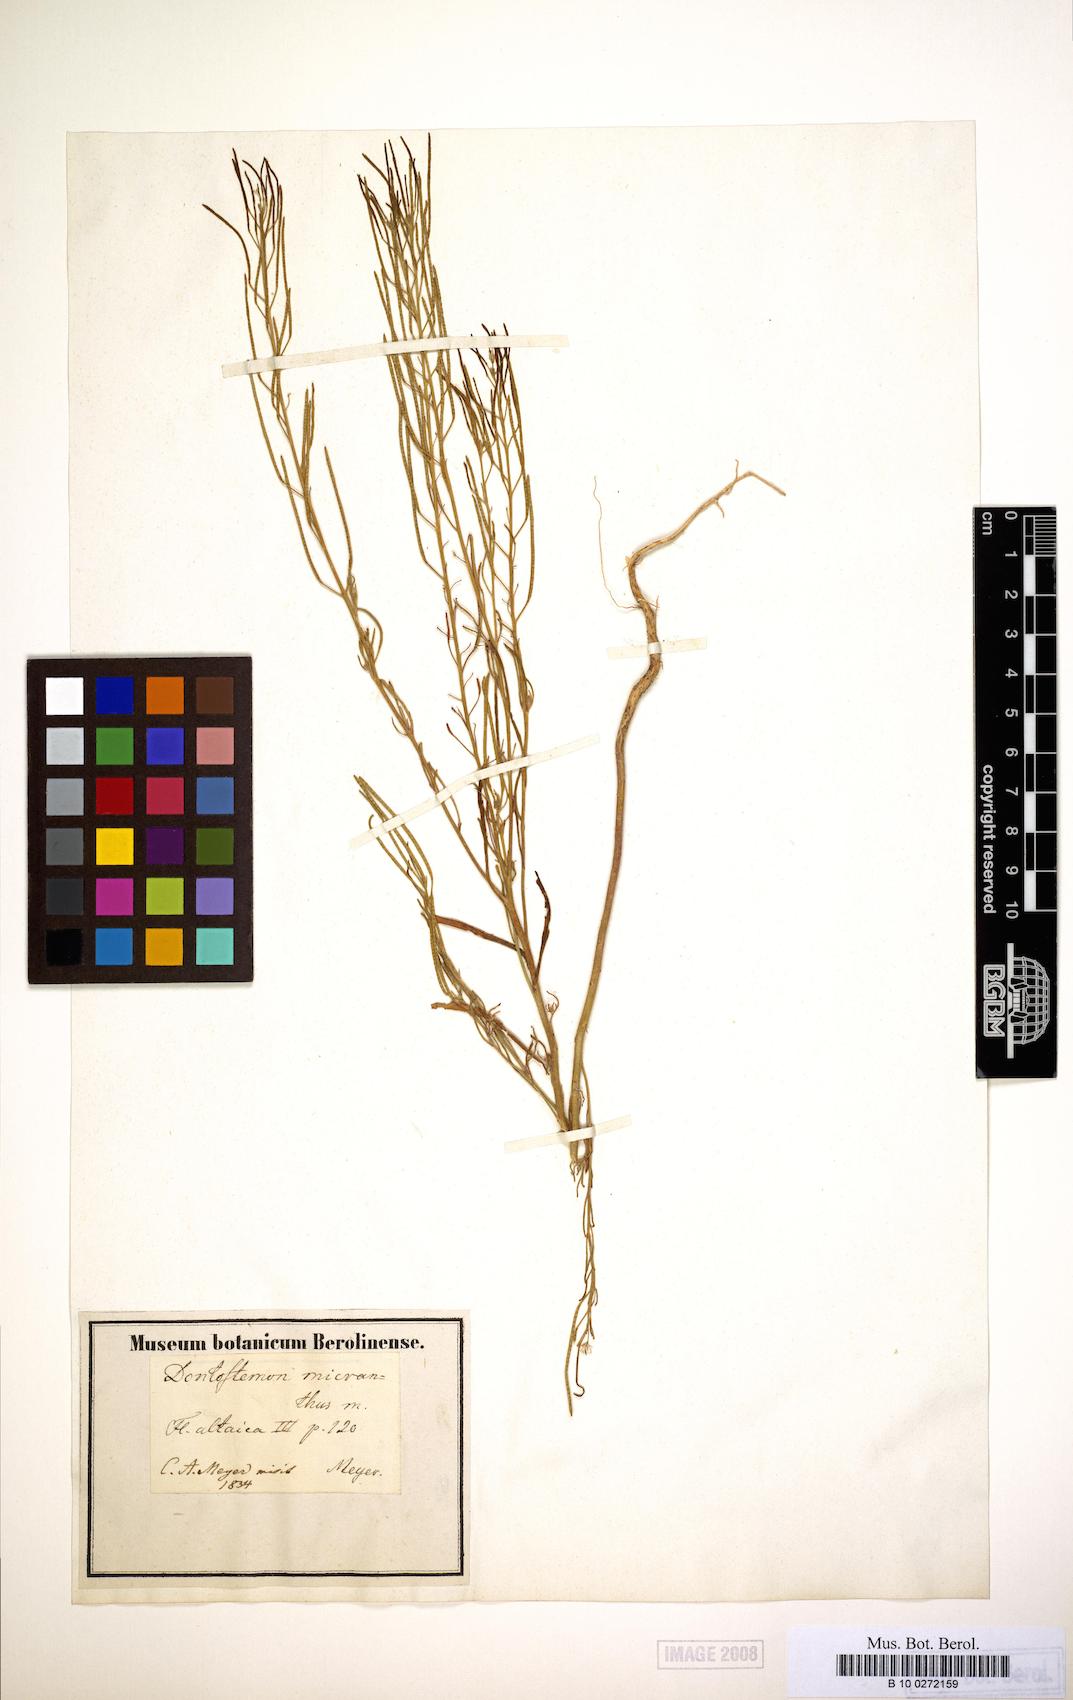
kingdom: Plantae
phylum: Tracheophyta
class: Magnoliopsida
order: Brassicales
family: Brassicaceae
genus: Dontostemon
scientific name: Dontostemon micranthus
